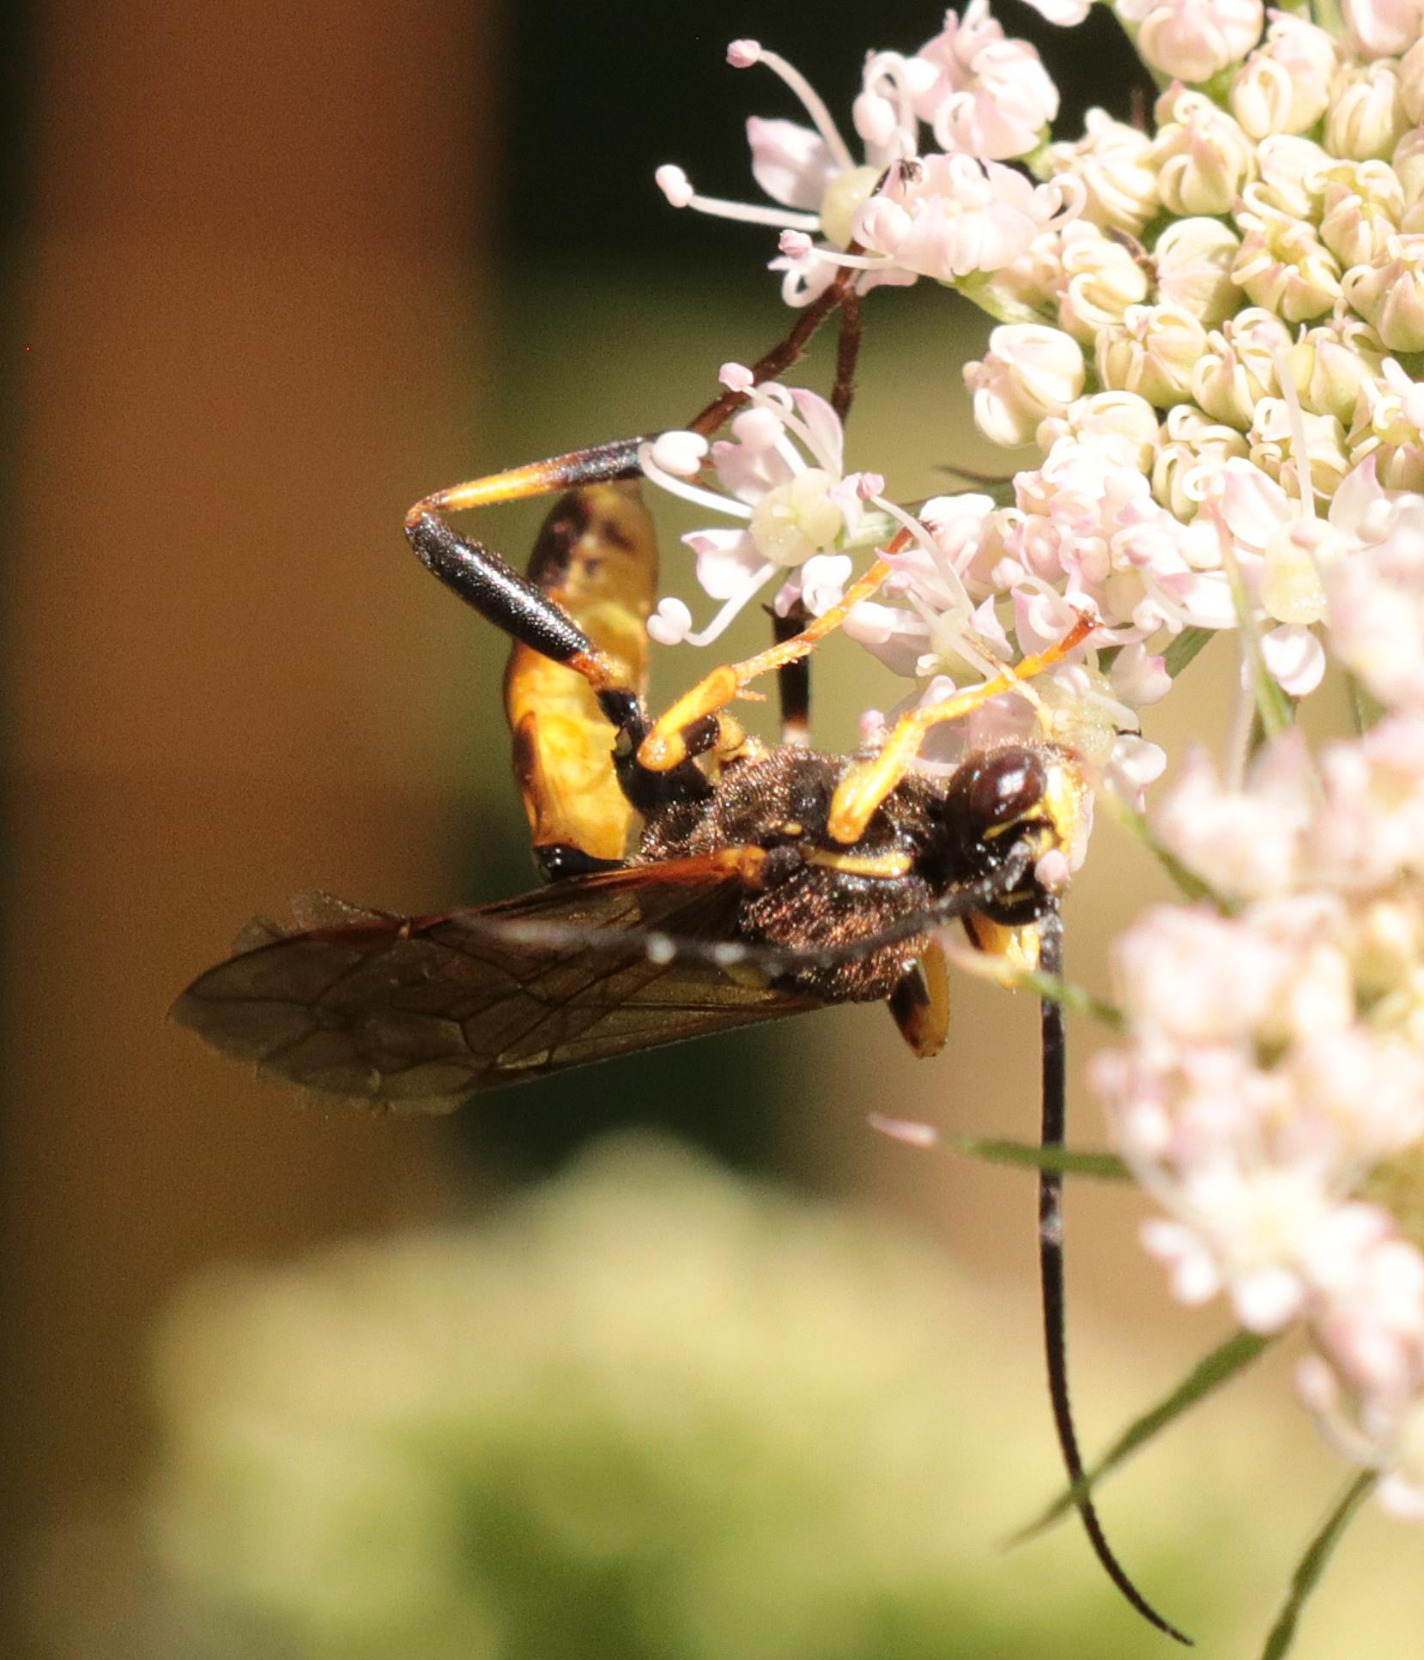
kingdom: Animalia
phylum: Arthropoda
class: Insecta
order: Hymenoptera
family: Ichneumonidae
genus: Diphyus
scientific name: Diphyus
